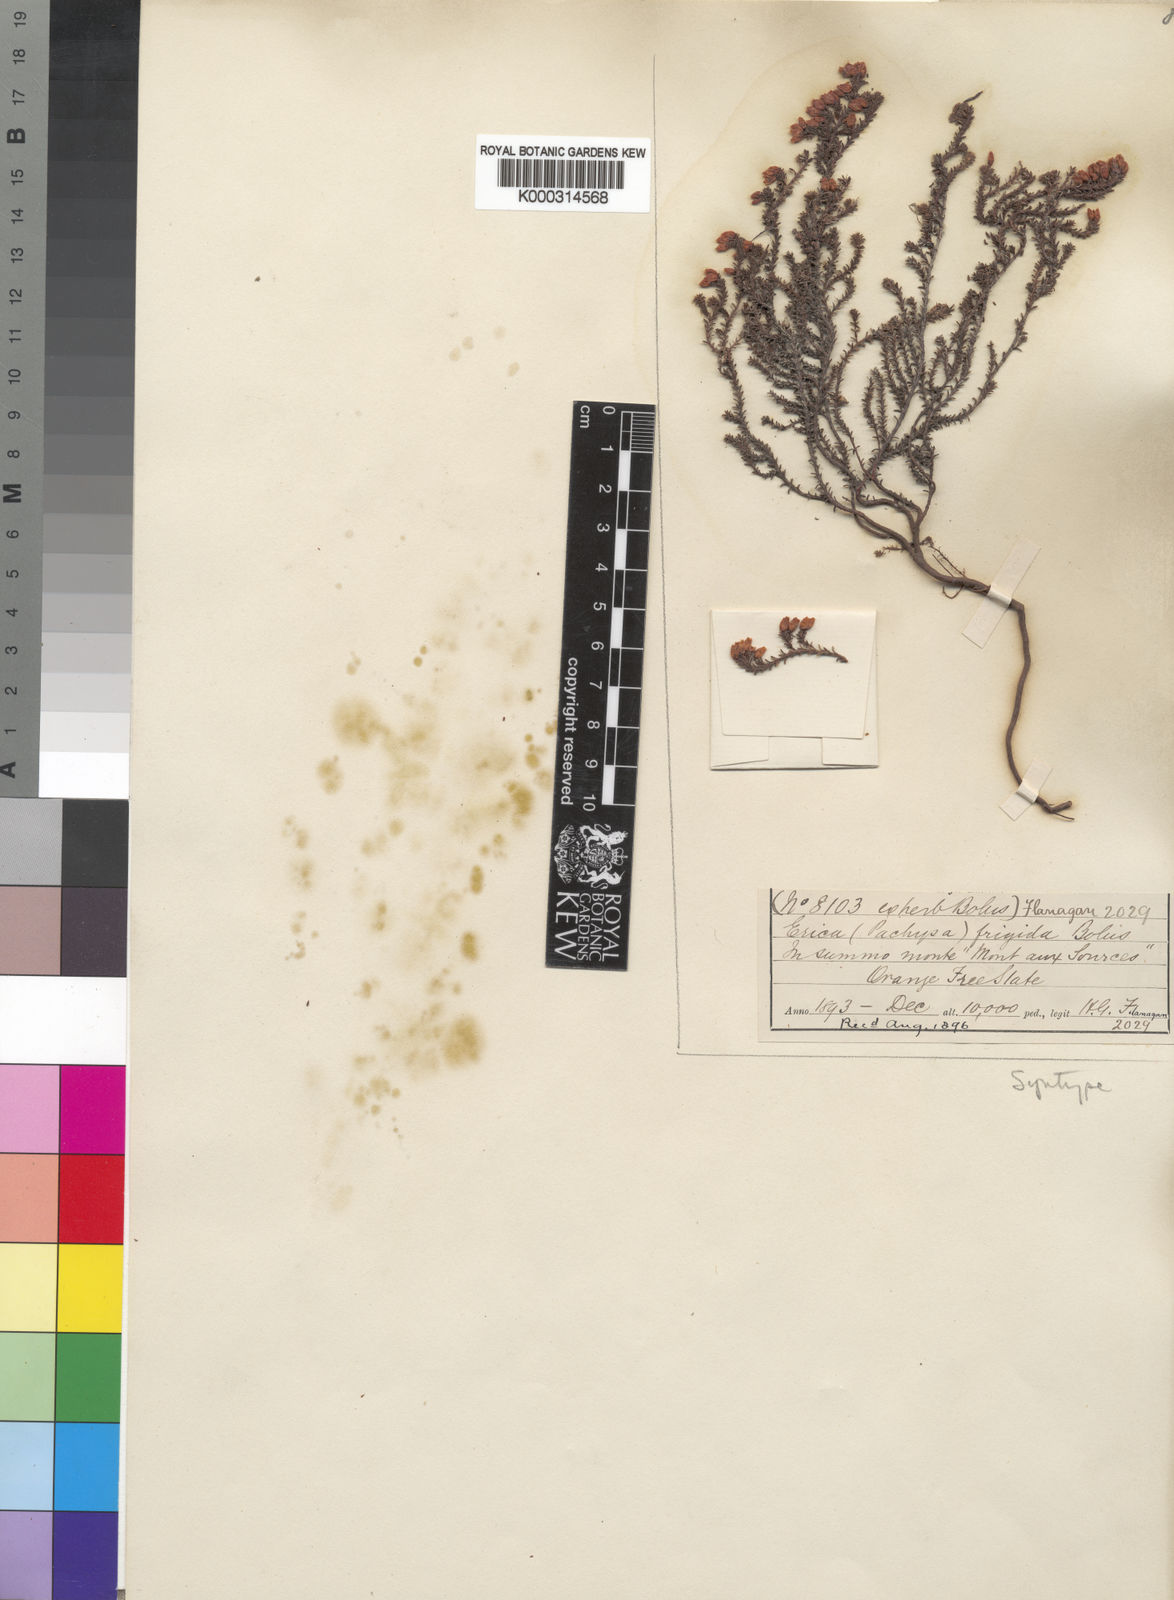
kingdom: Plantae
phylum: Tracheophyta
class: Magnoliopsida
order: Ericales
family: Ericaceae
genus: Erica
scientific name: Erica frigida
